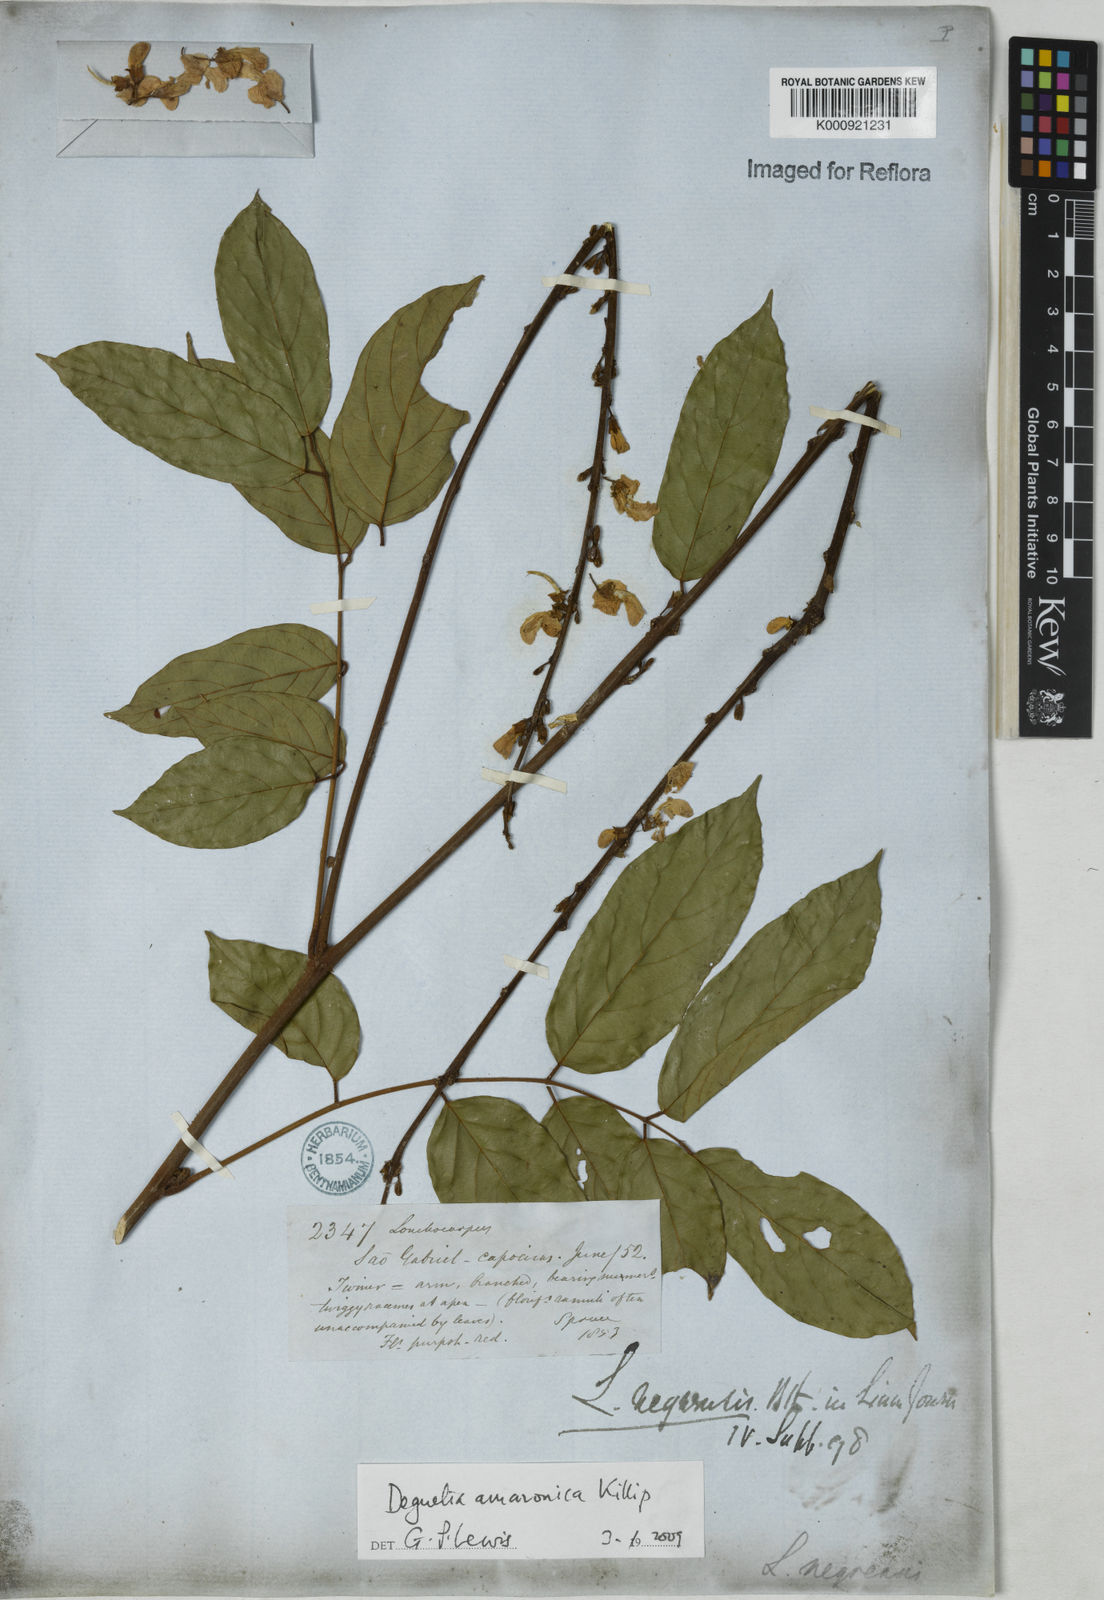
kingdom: Plantae
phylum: Tracheophyta
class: Magnoliopsida
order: Fabales
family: Fabaceae
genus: Deguelia
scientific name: Deguelia amazonica
